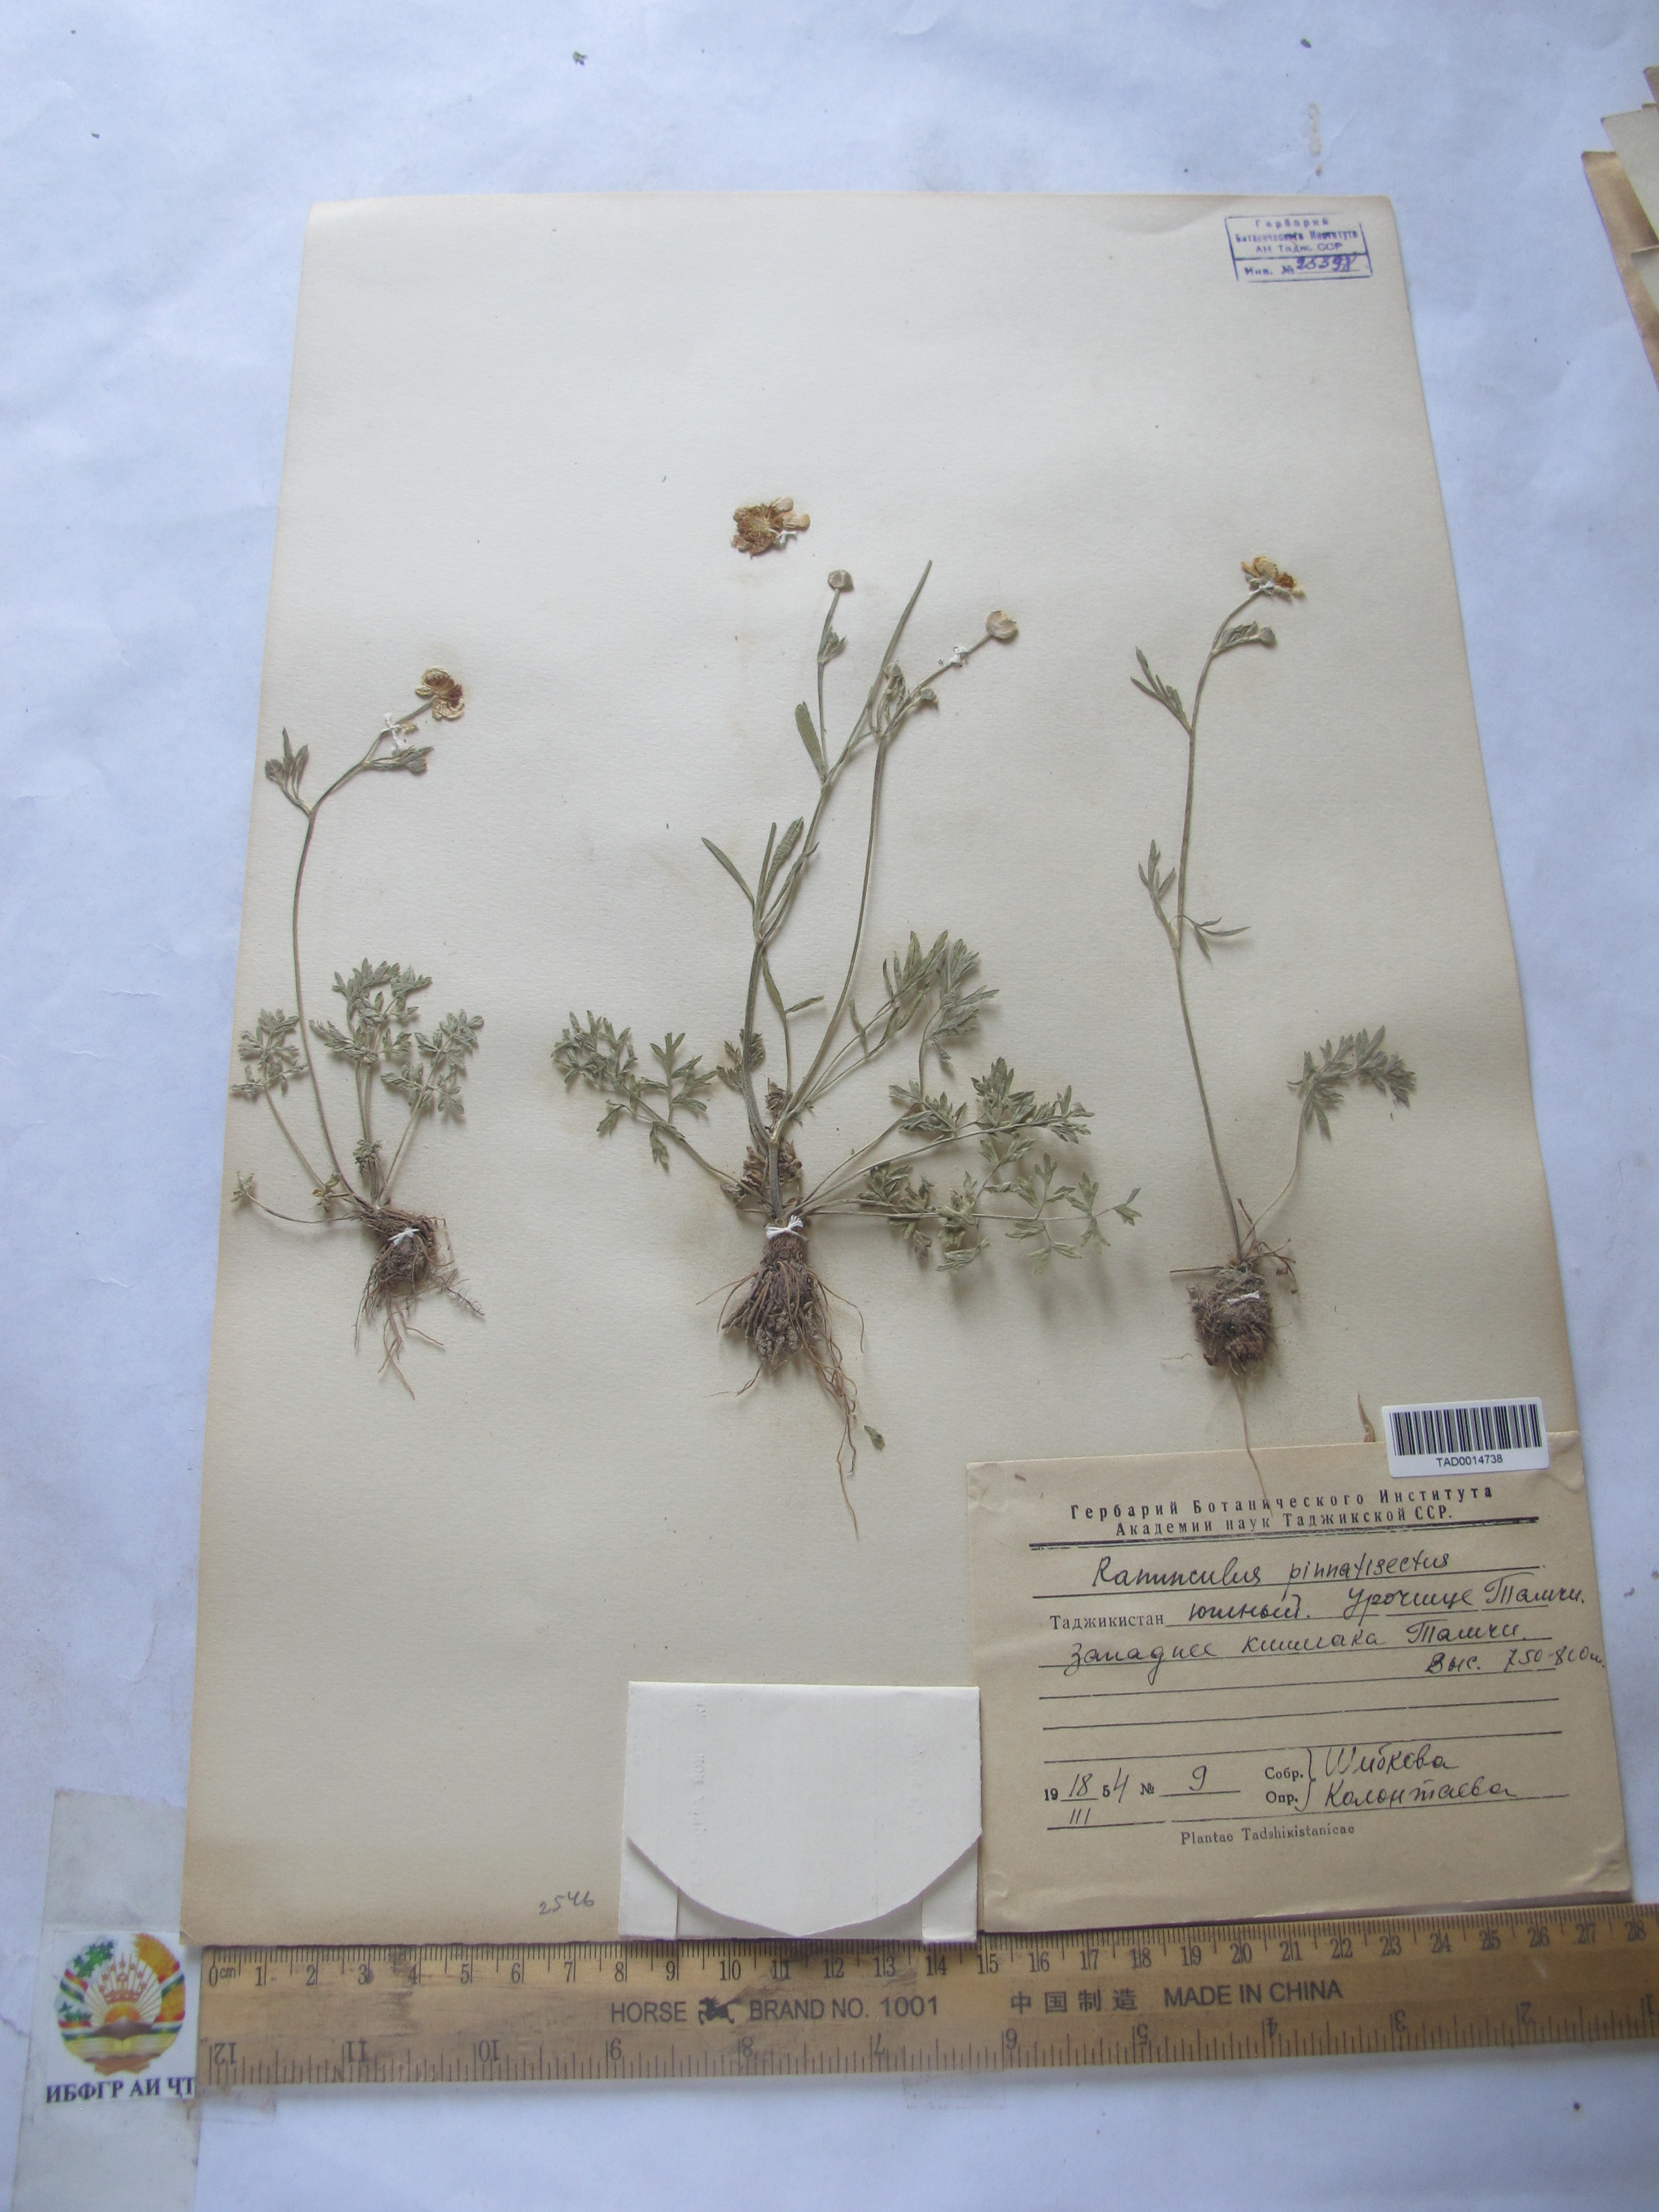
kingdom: Plantae
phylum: Tracheophyta
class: Magnoliopsida
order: Ranunculales
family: Ranunculaceae
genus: Ranunculus
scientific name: Ranunculus pinnatisectus
